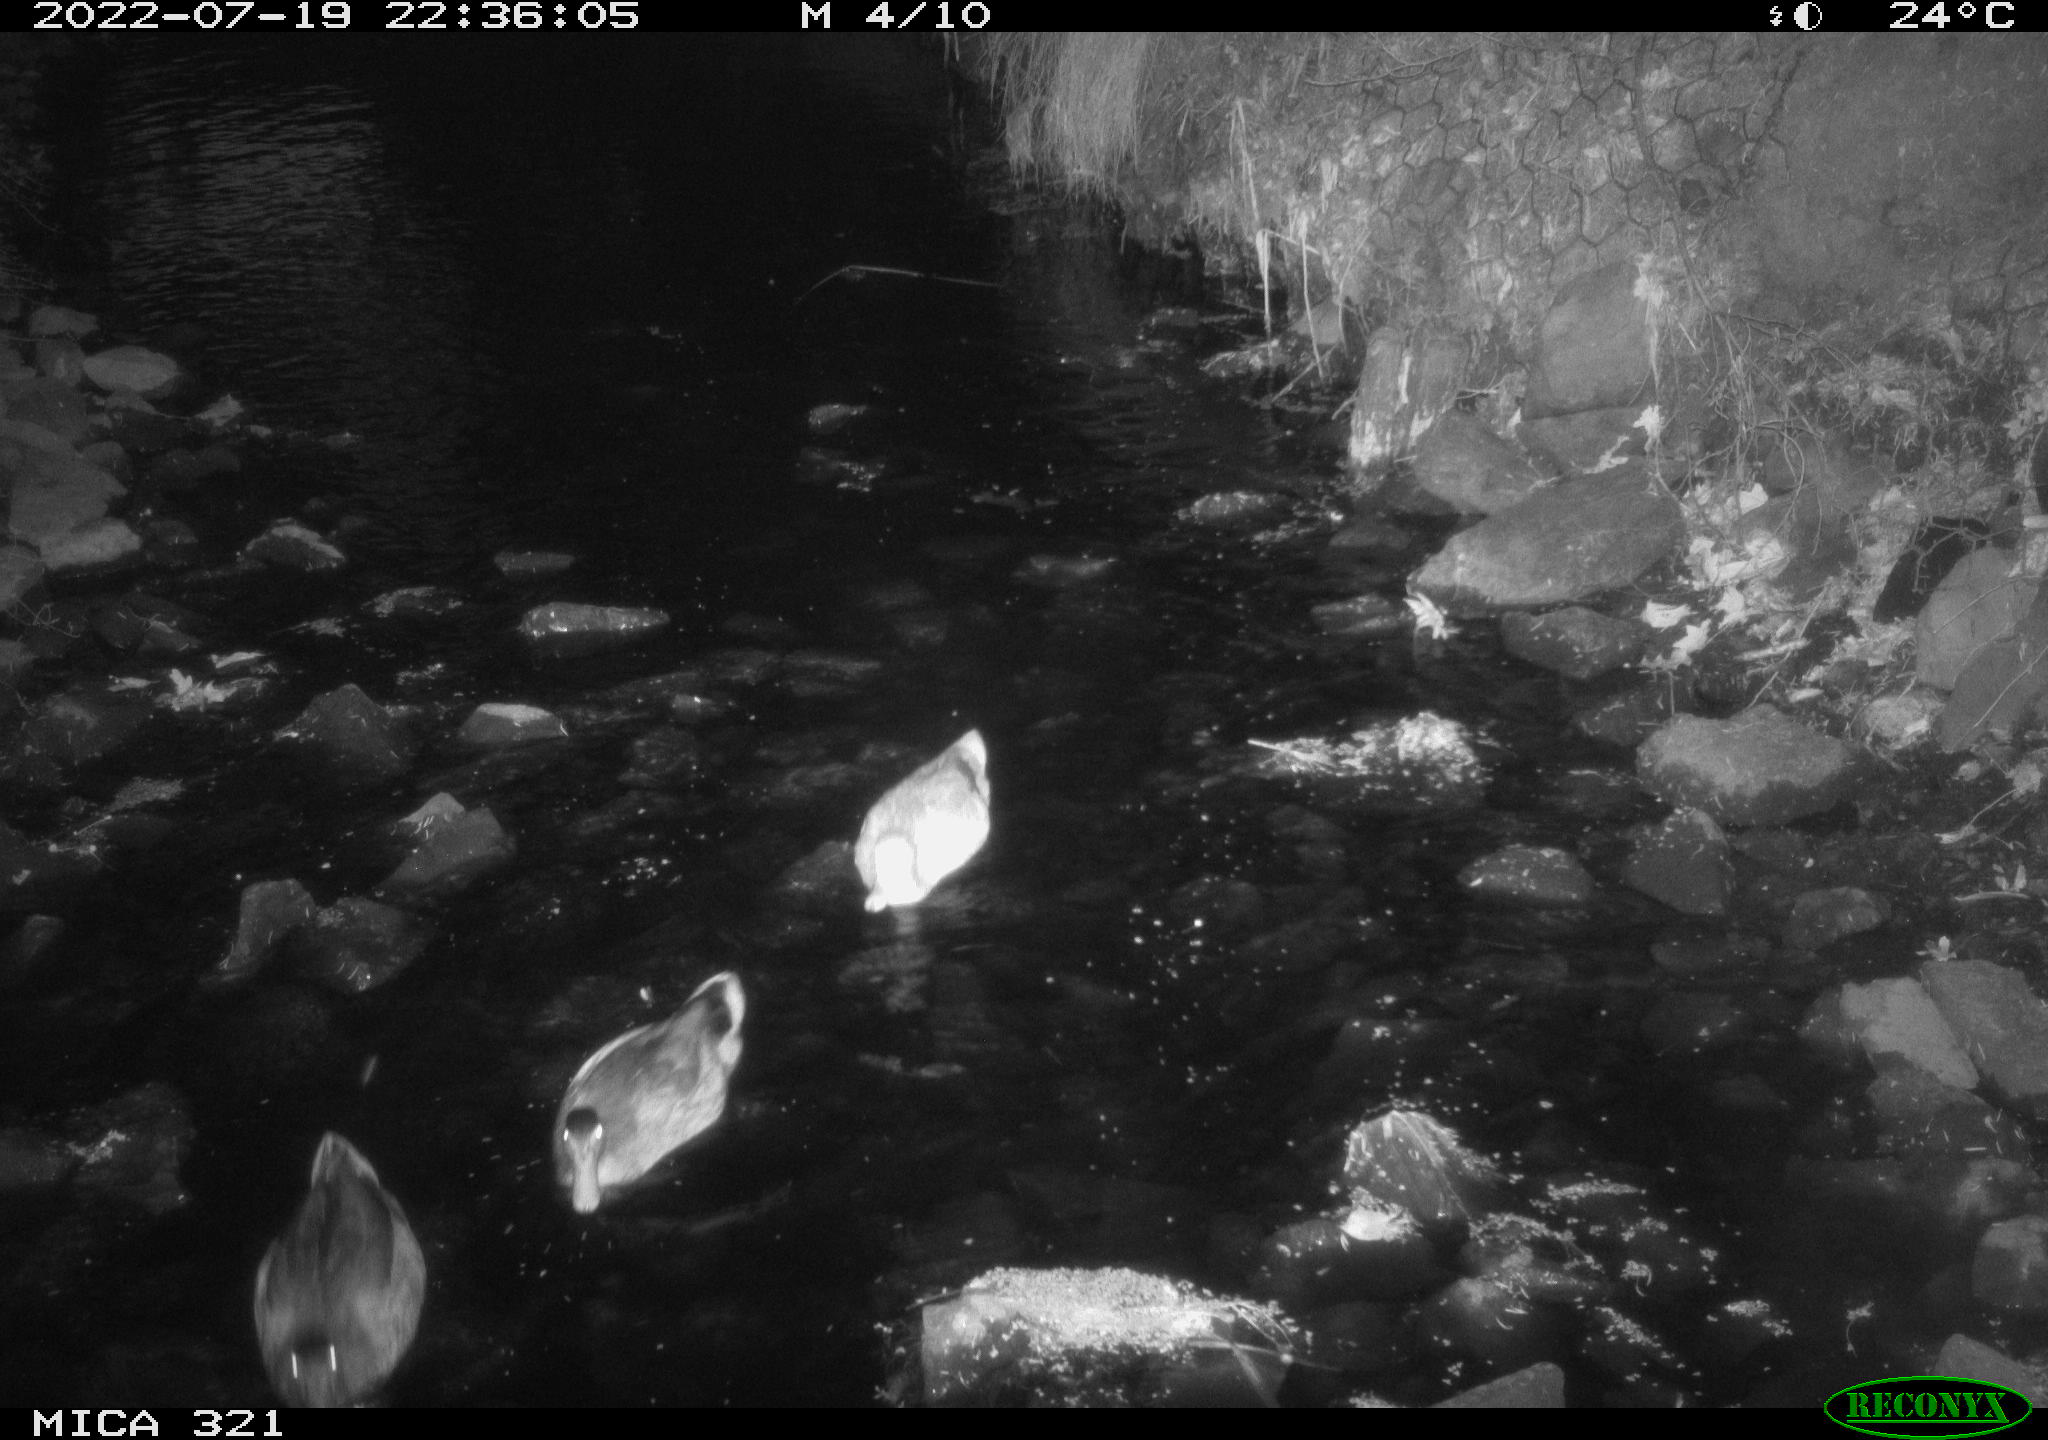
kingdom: Animalia
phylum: Chordata
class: Aves
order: Anseriformes
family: Anatidae
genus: Mareca
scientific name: Mareca strepera
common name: Gadwall
